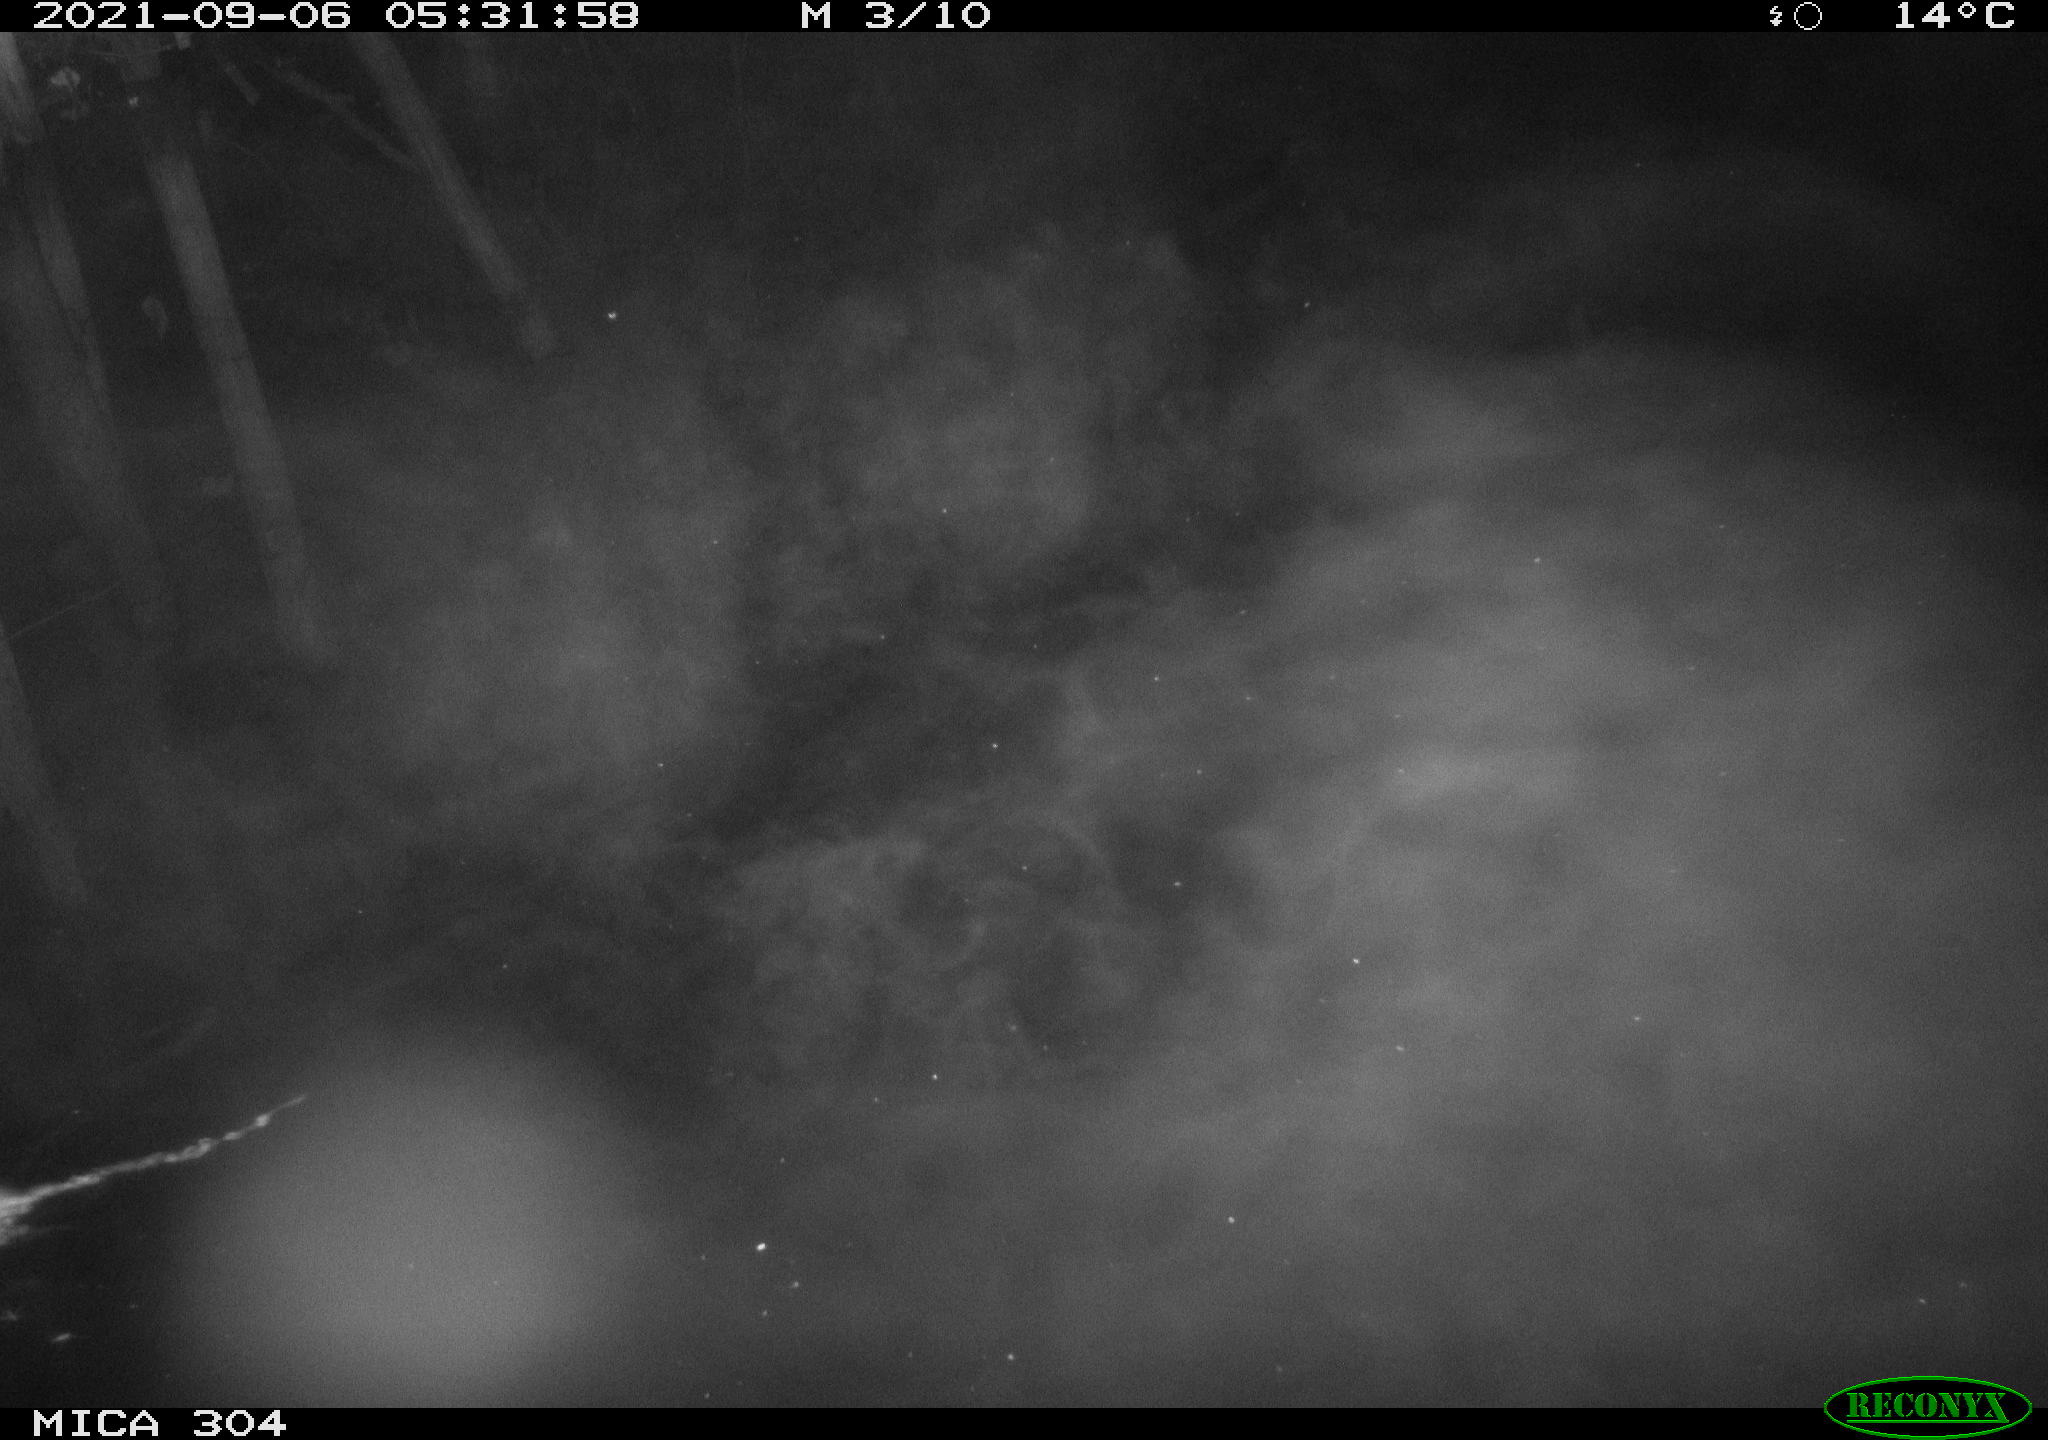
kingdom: Animalia
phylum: Chordata
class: Mammalia
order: Rodentia
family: Muridae
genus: Rattus
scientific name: Rattus norvegicus
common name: Brown rat
